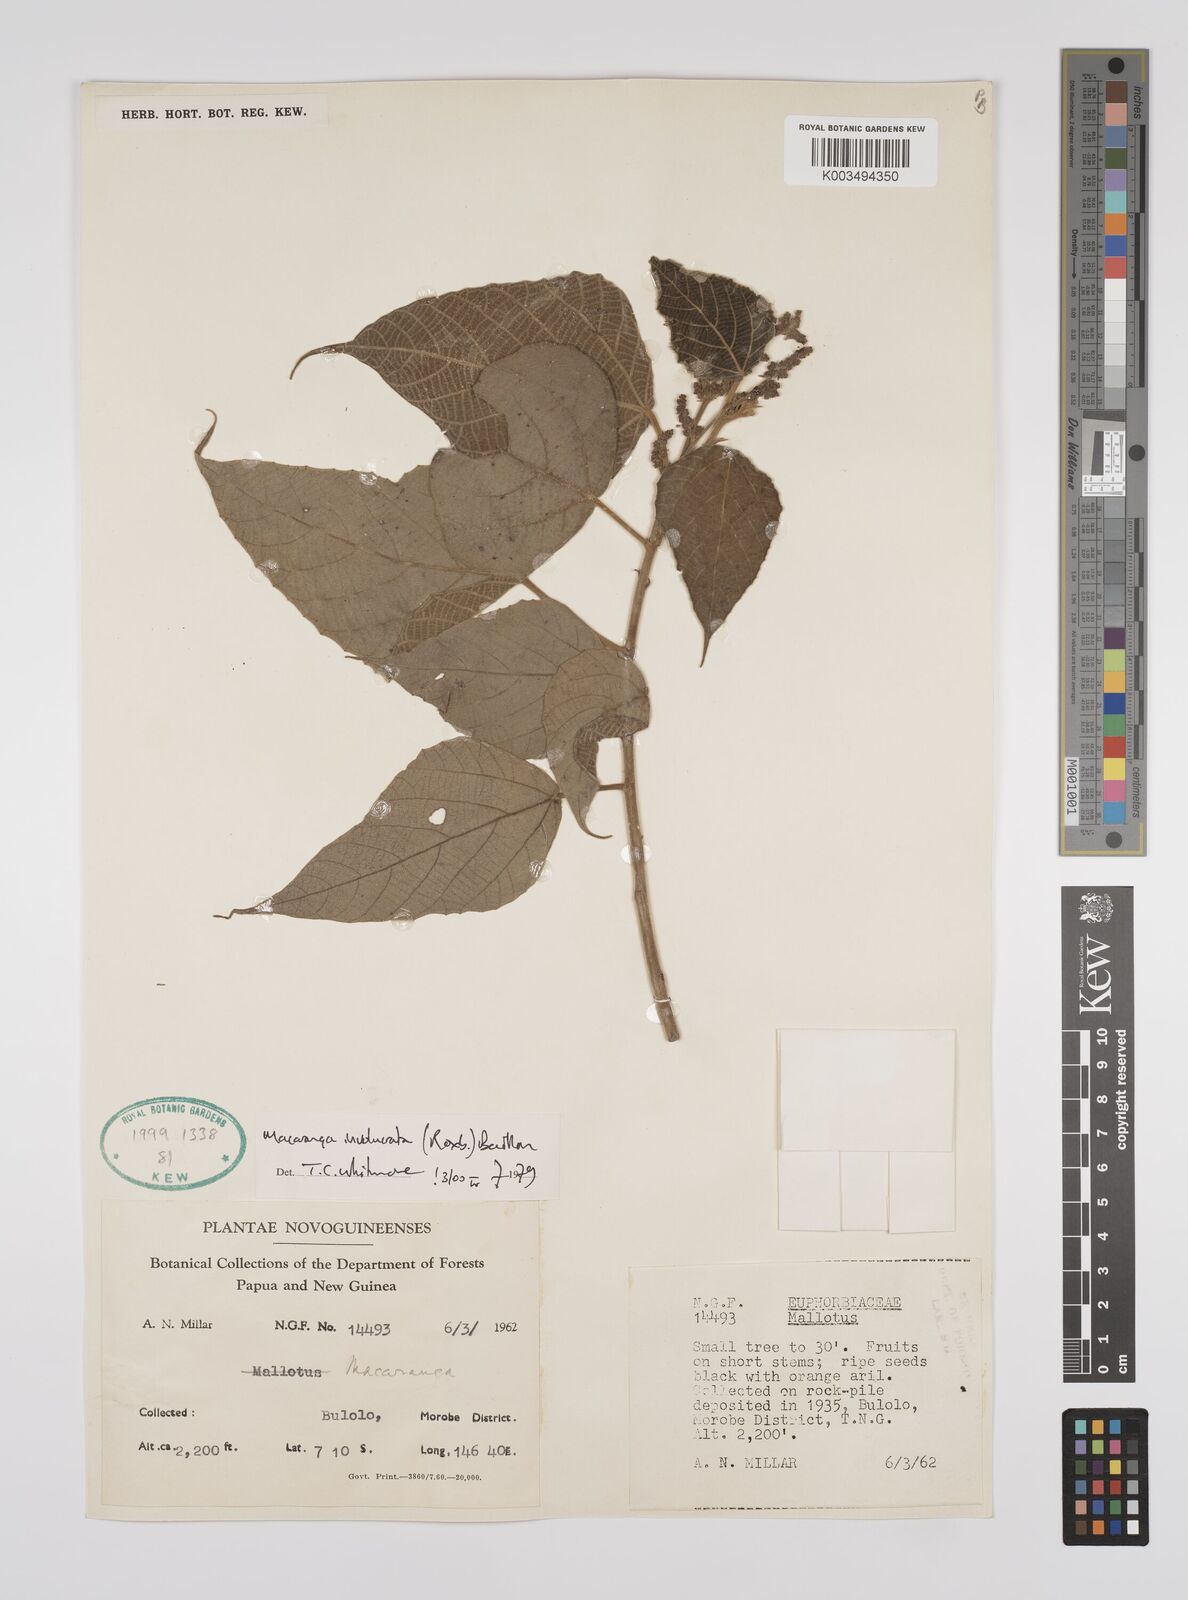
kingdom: Plantae
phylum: Tracheophyta
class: Magnoliopsida
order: Malpighiales
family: Euphorbiaceae
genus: Macaranga
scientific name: Macaranga involucrata
